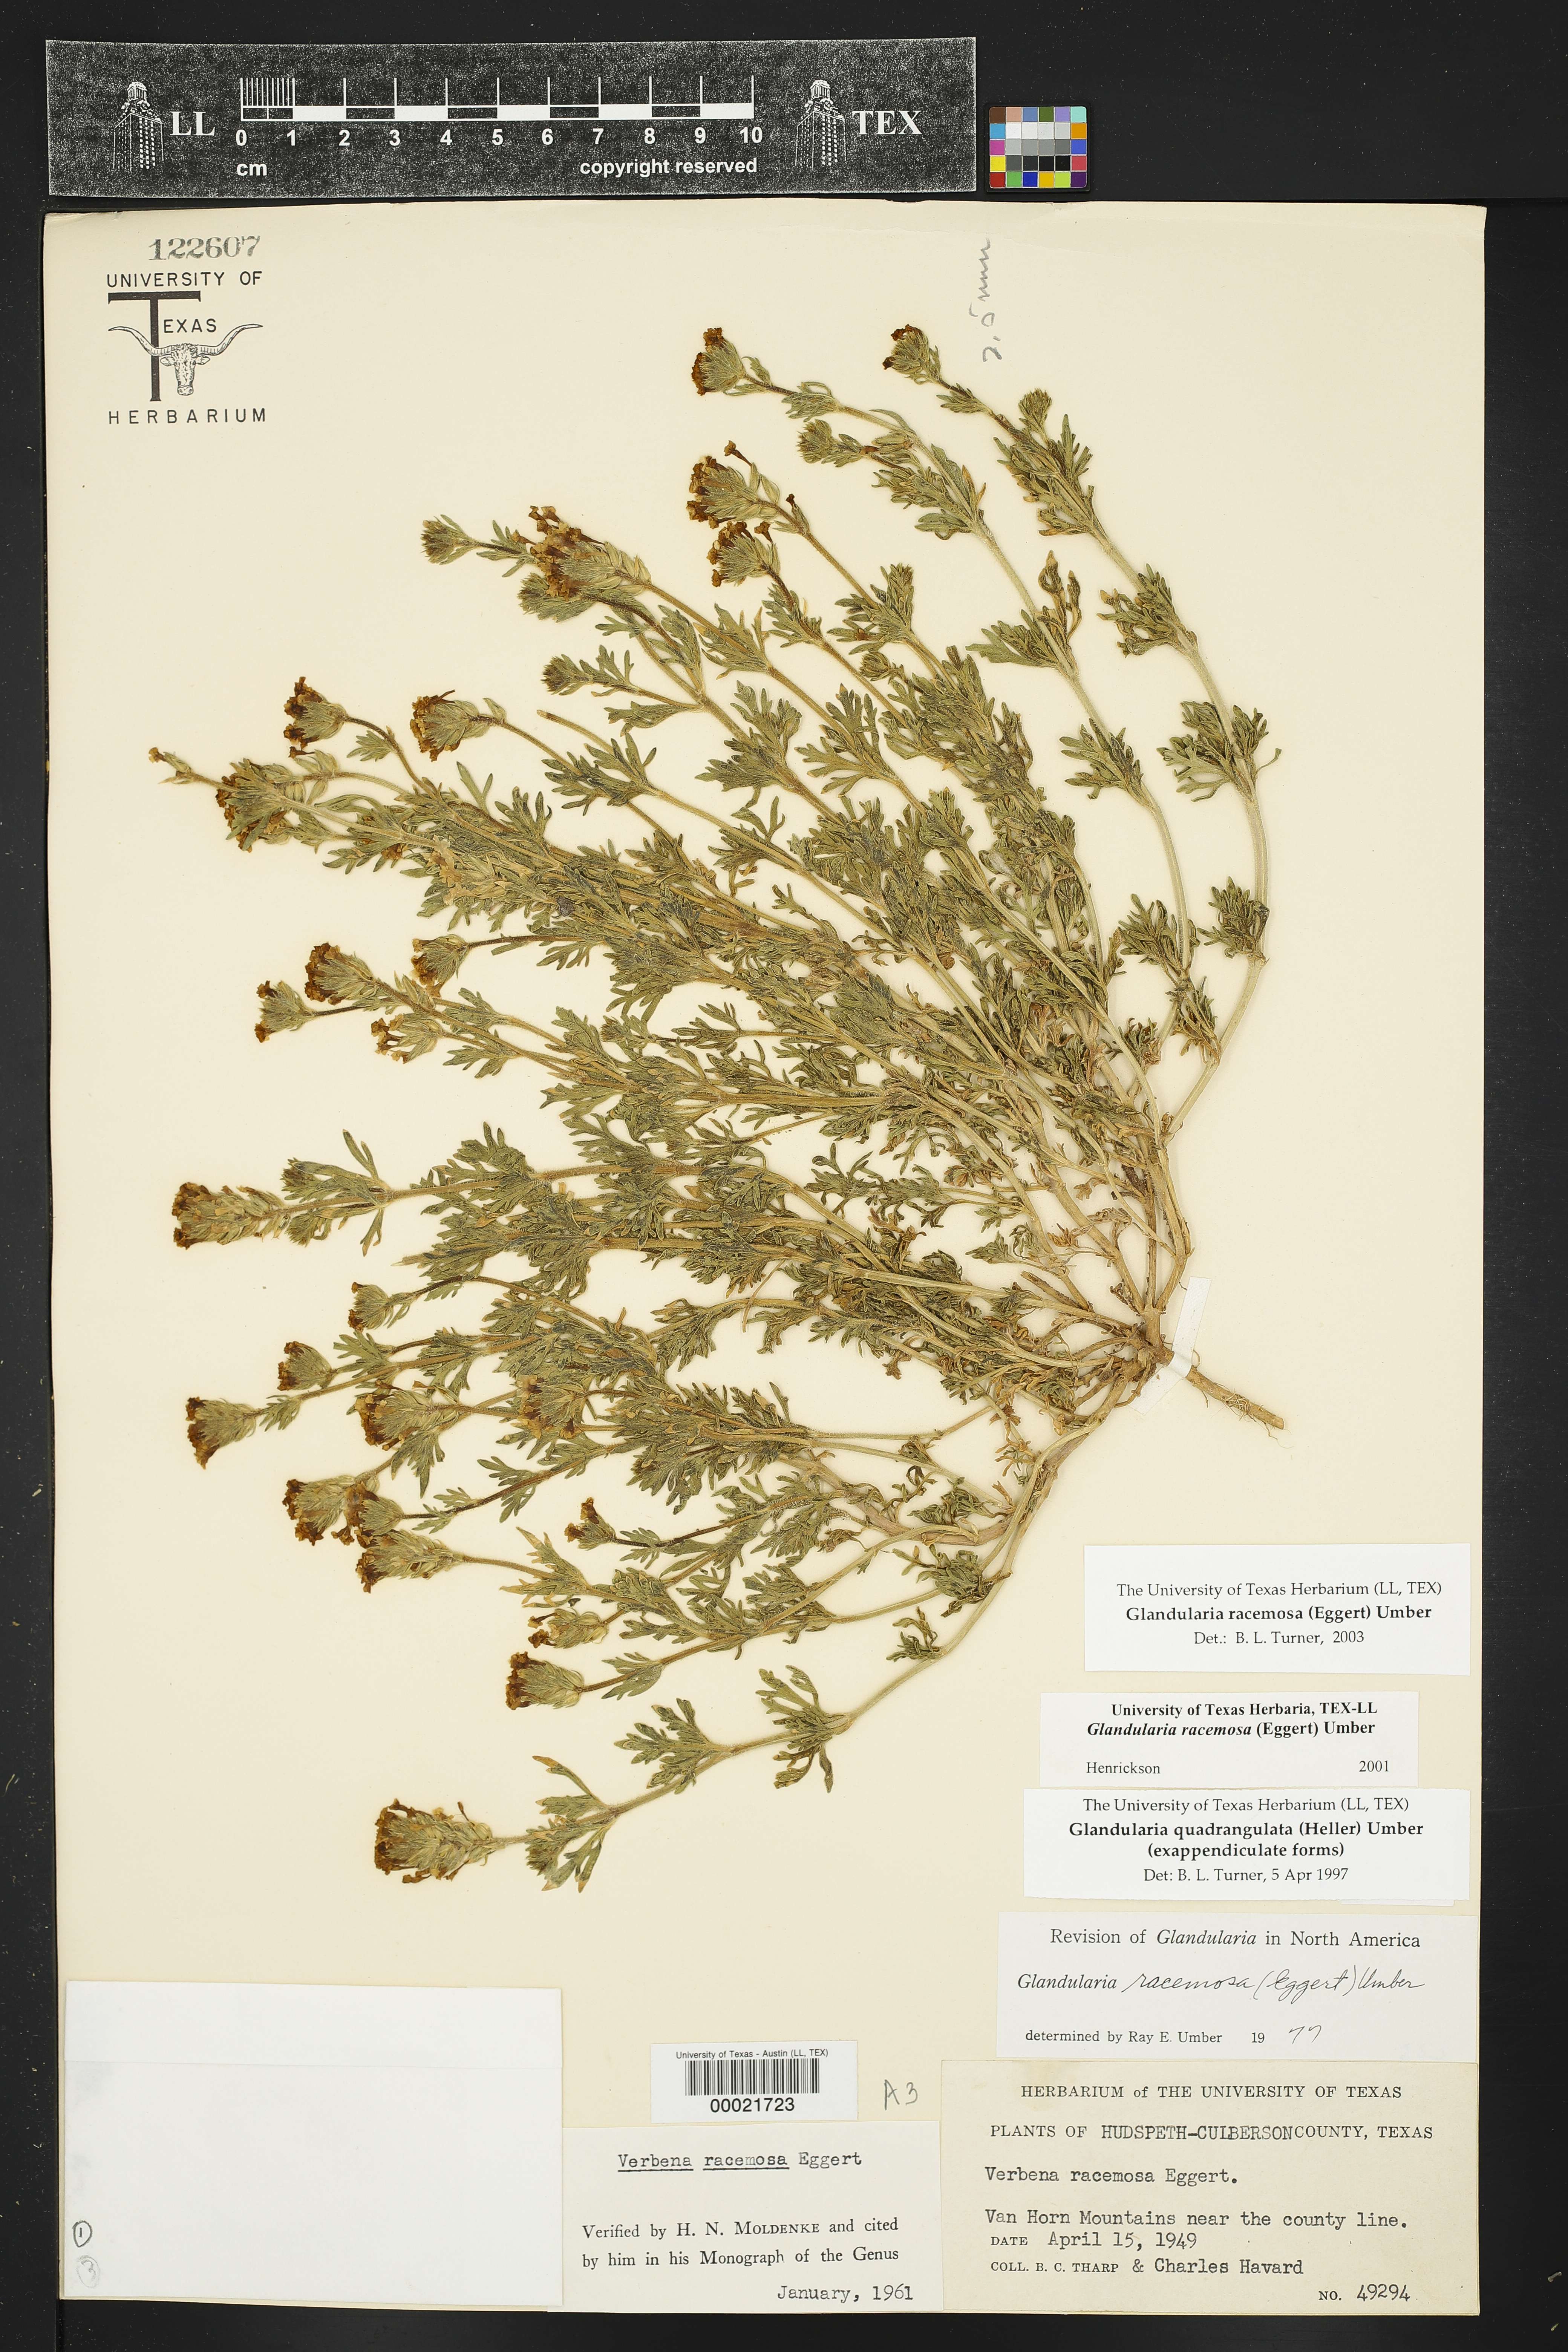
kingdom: Plantae
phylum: Tracheophyta
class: Magnoliopsida
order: Lamiales
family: Verbenaceae
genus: Verbena
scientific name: Verbena racemosa
